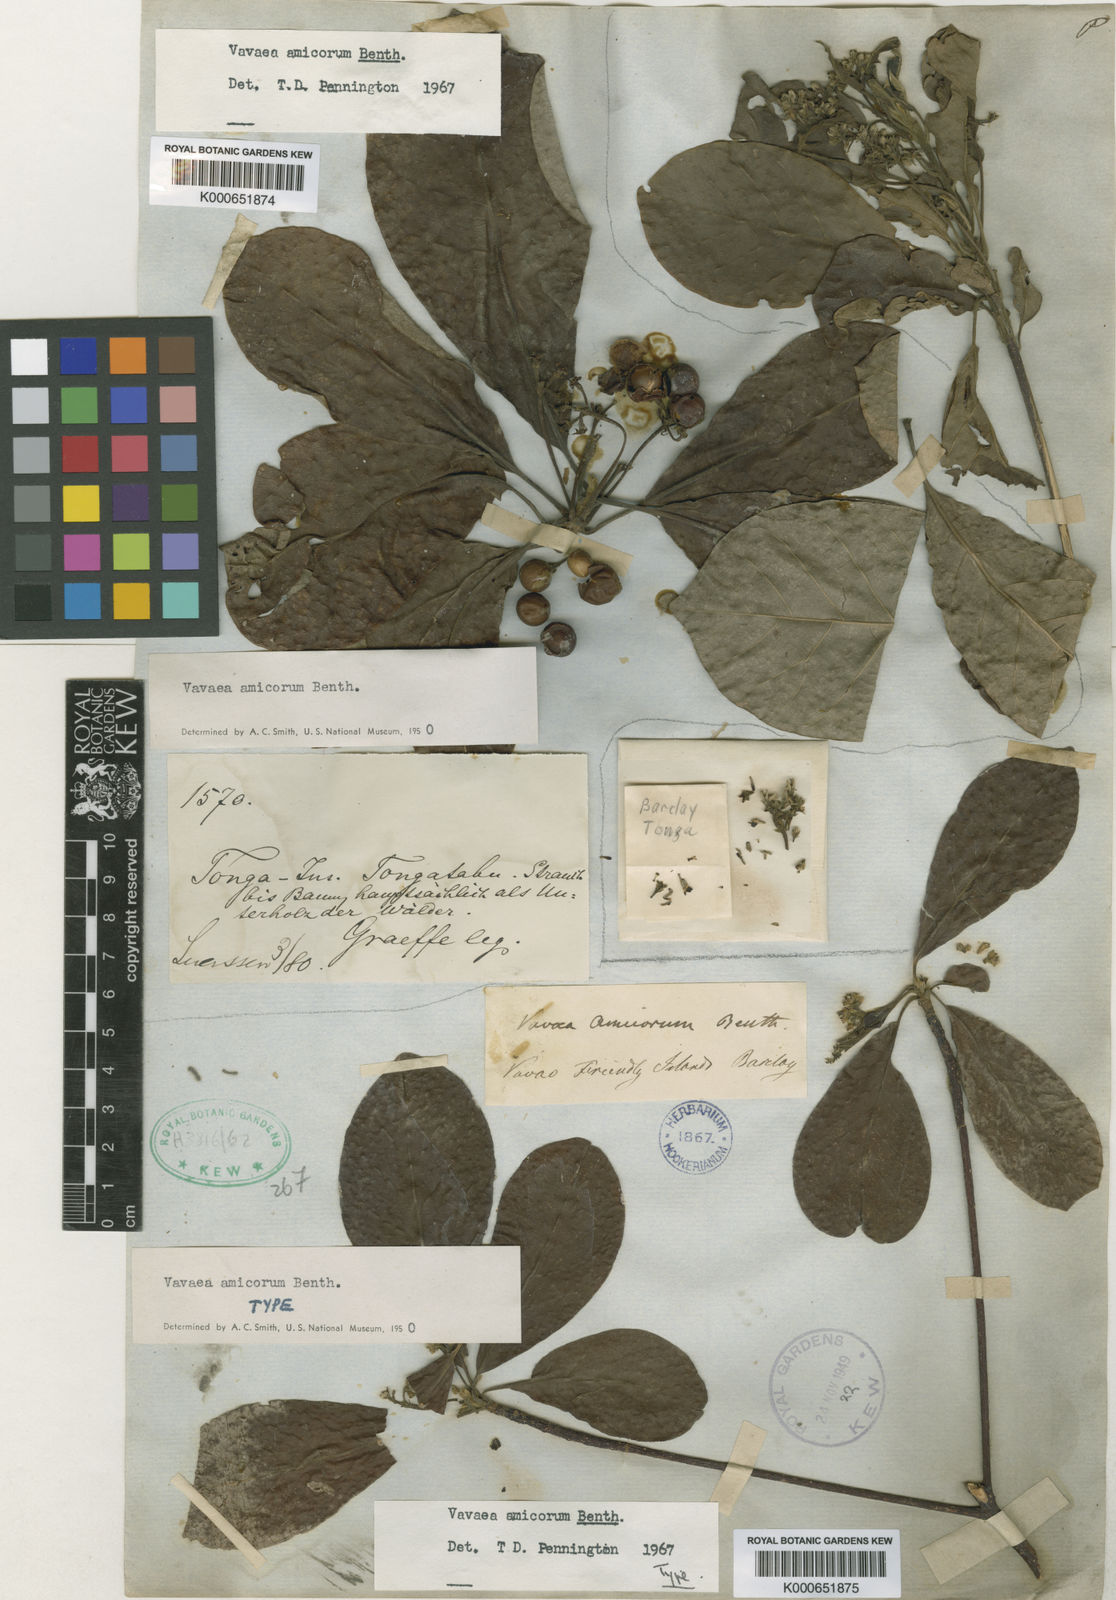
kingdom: Plantae
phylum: Tracheophyta
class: Magnoliopsida
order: Sapindales
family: Meliaceae
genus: Vavaea
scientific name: Vavaea amicorum
